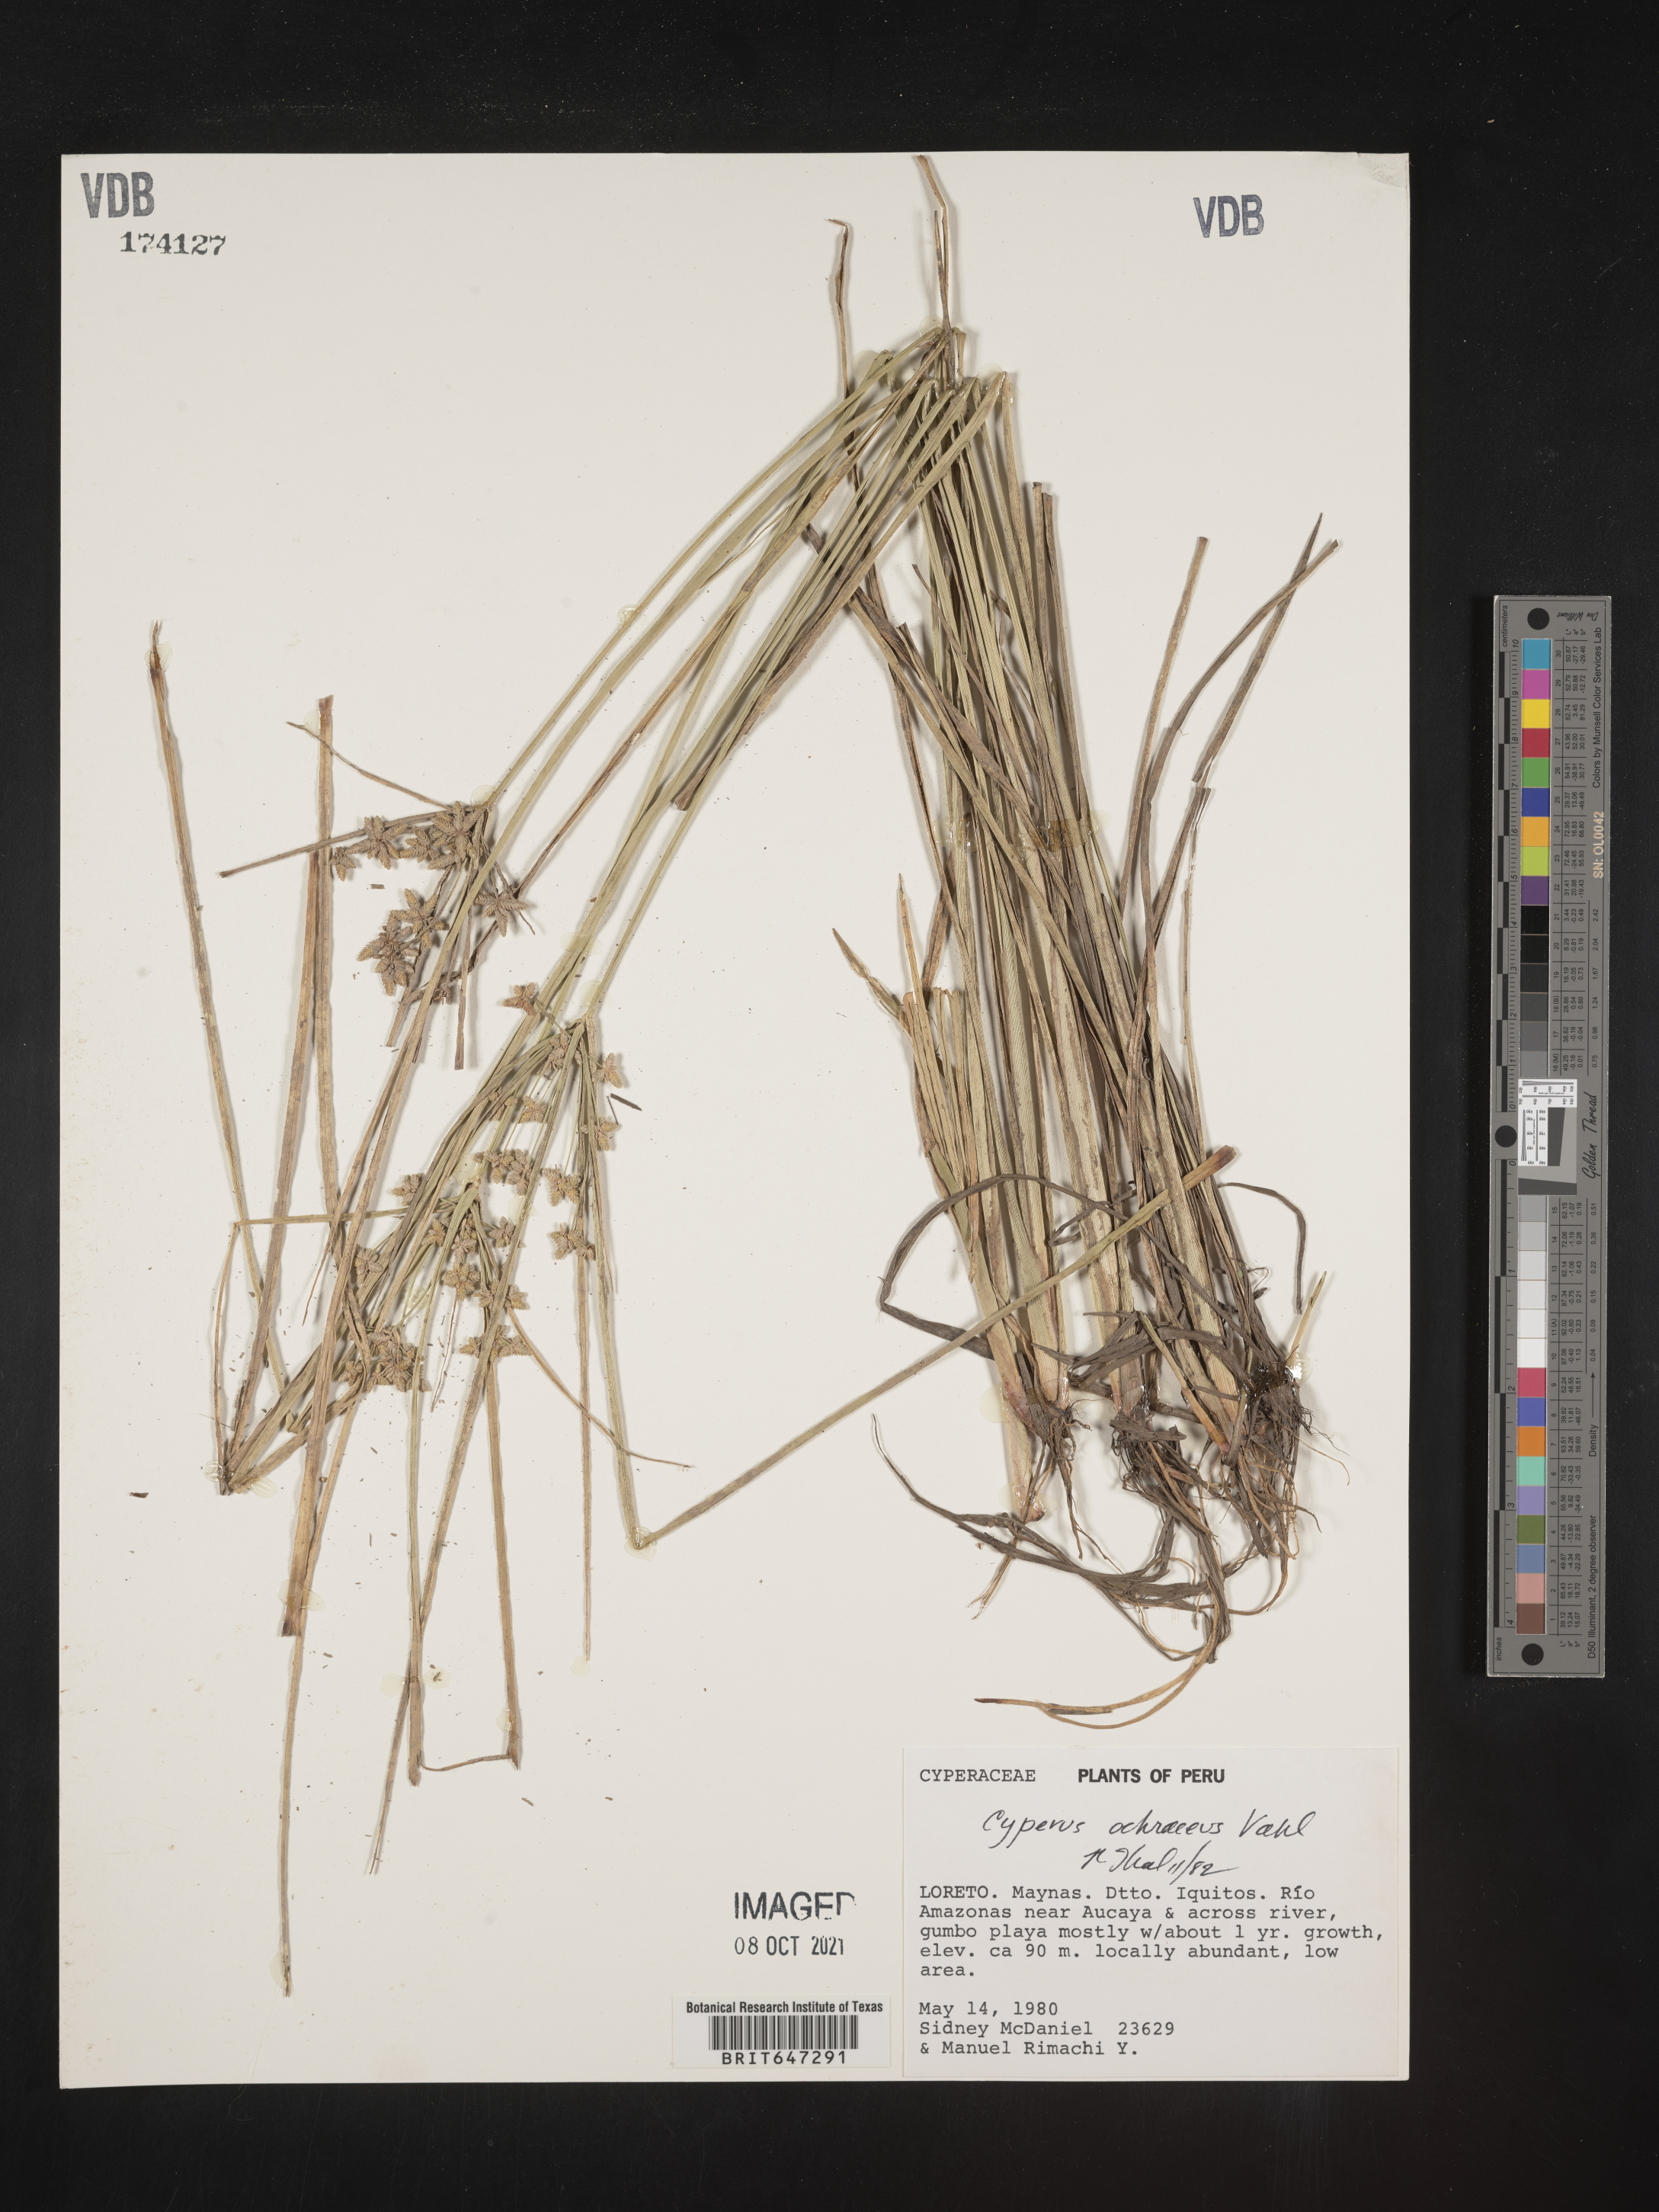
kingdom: Plantae
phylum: Tracheophyta
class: Liliopsida
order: Poales
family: Cyperaceae
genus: Cyperus
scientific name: Cyperus ochraceus
